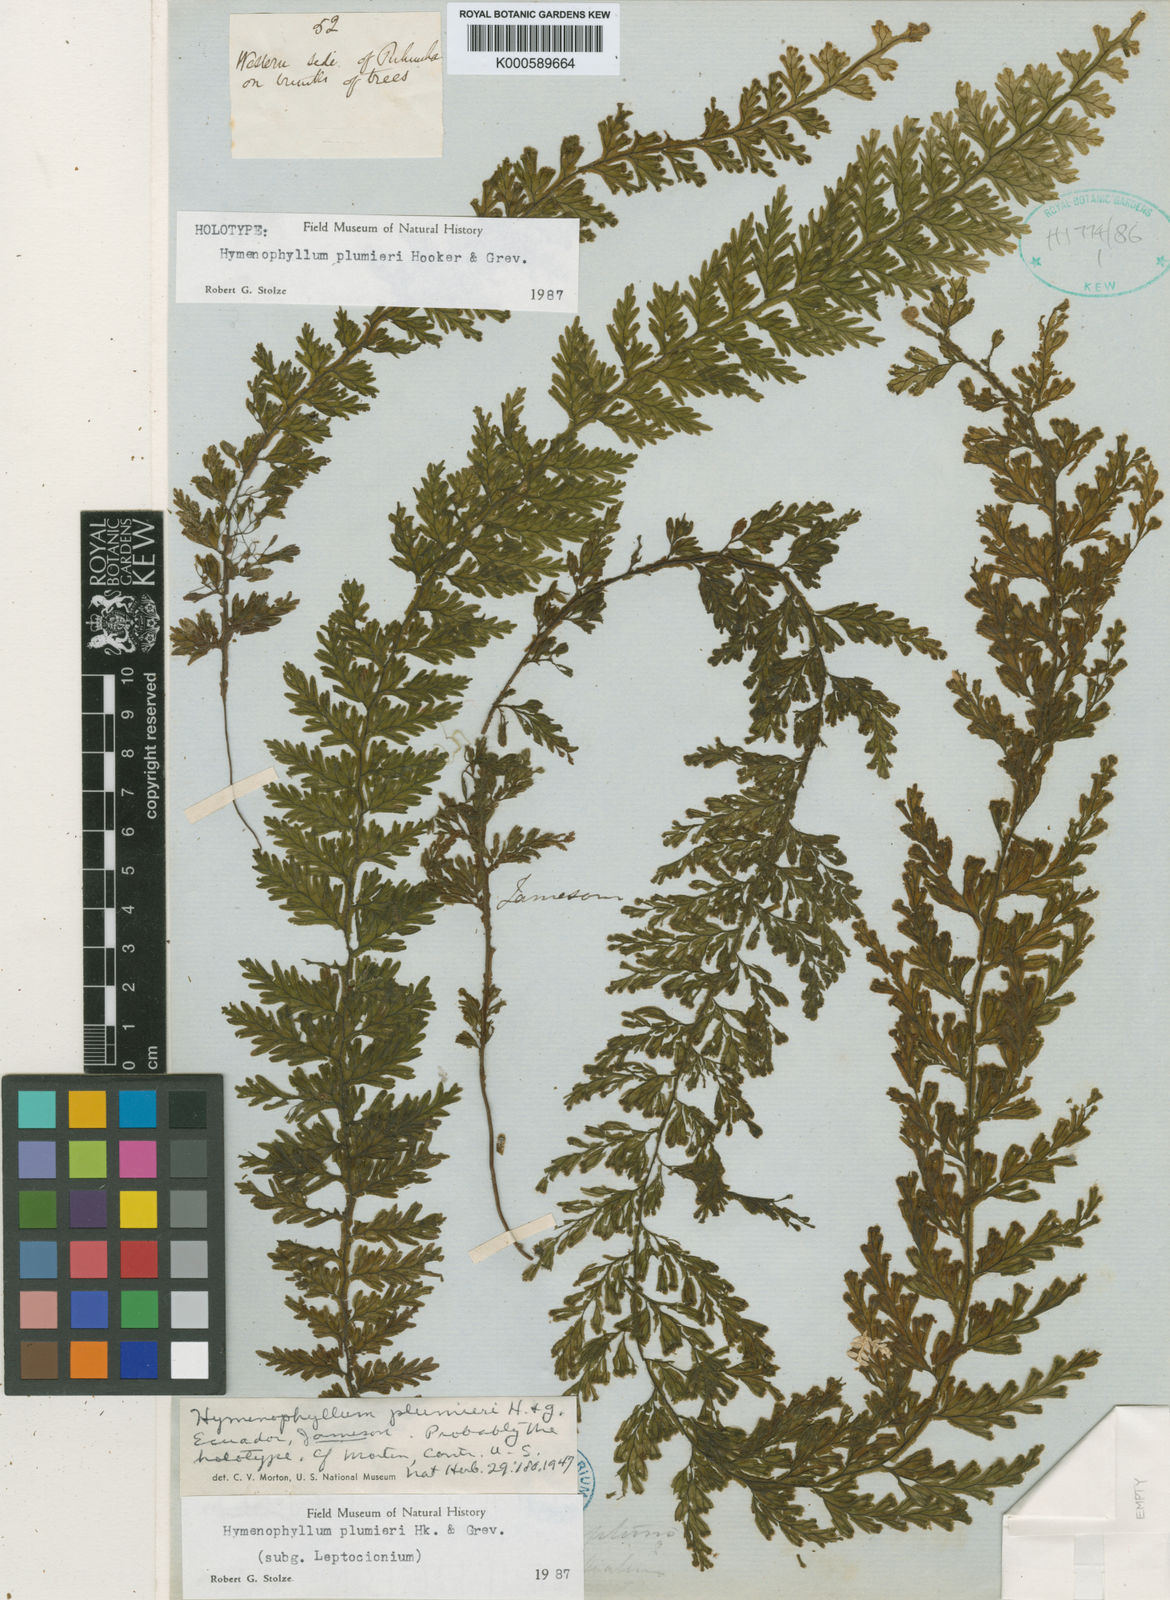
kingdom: Plantae
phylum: Tracheophyta
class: Polypodiopsida
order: Hymenophyllales
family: Hymenophyllaceae
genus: Hymenophyllum
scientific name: Hymenophyllum plumieri
